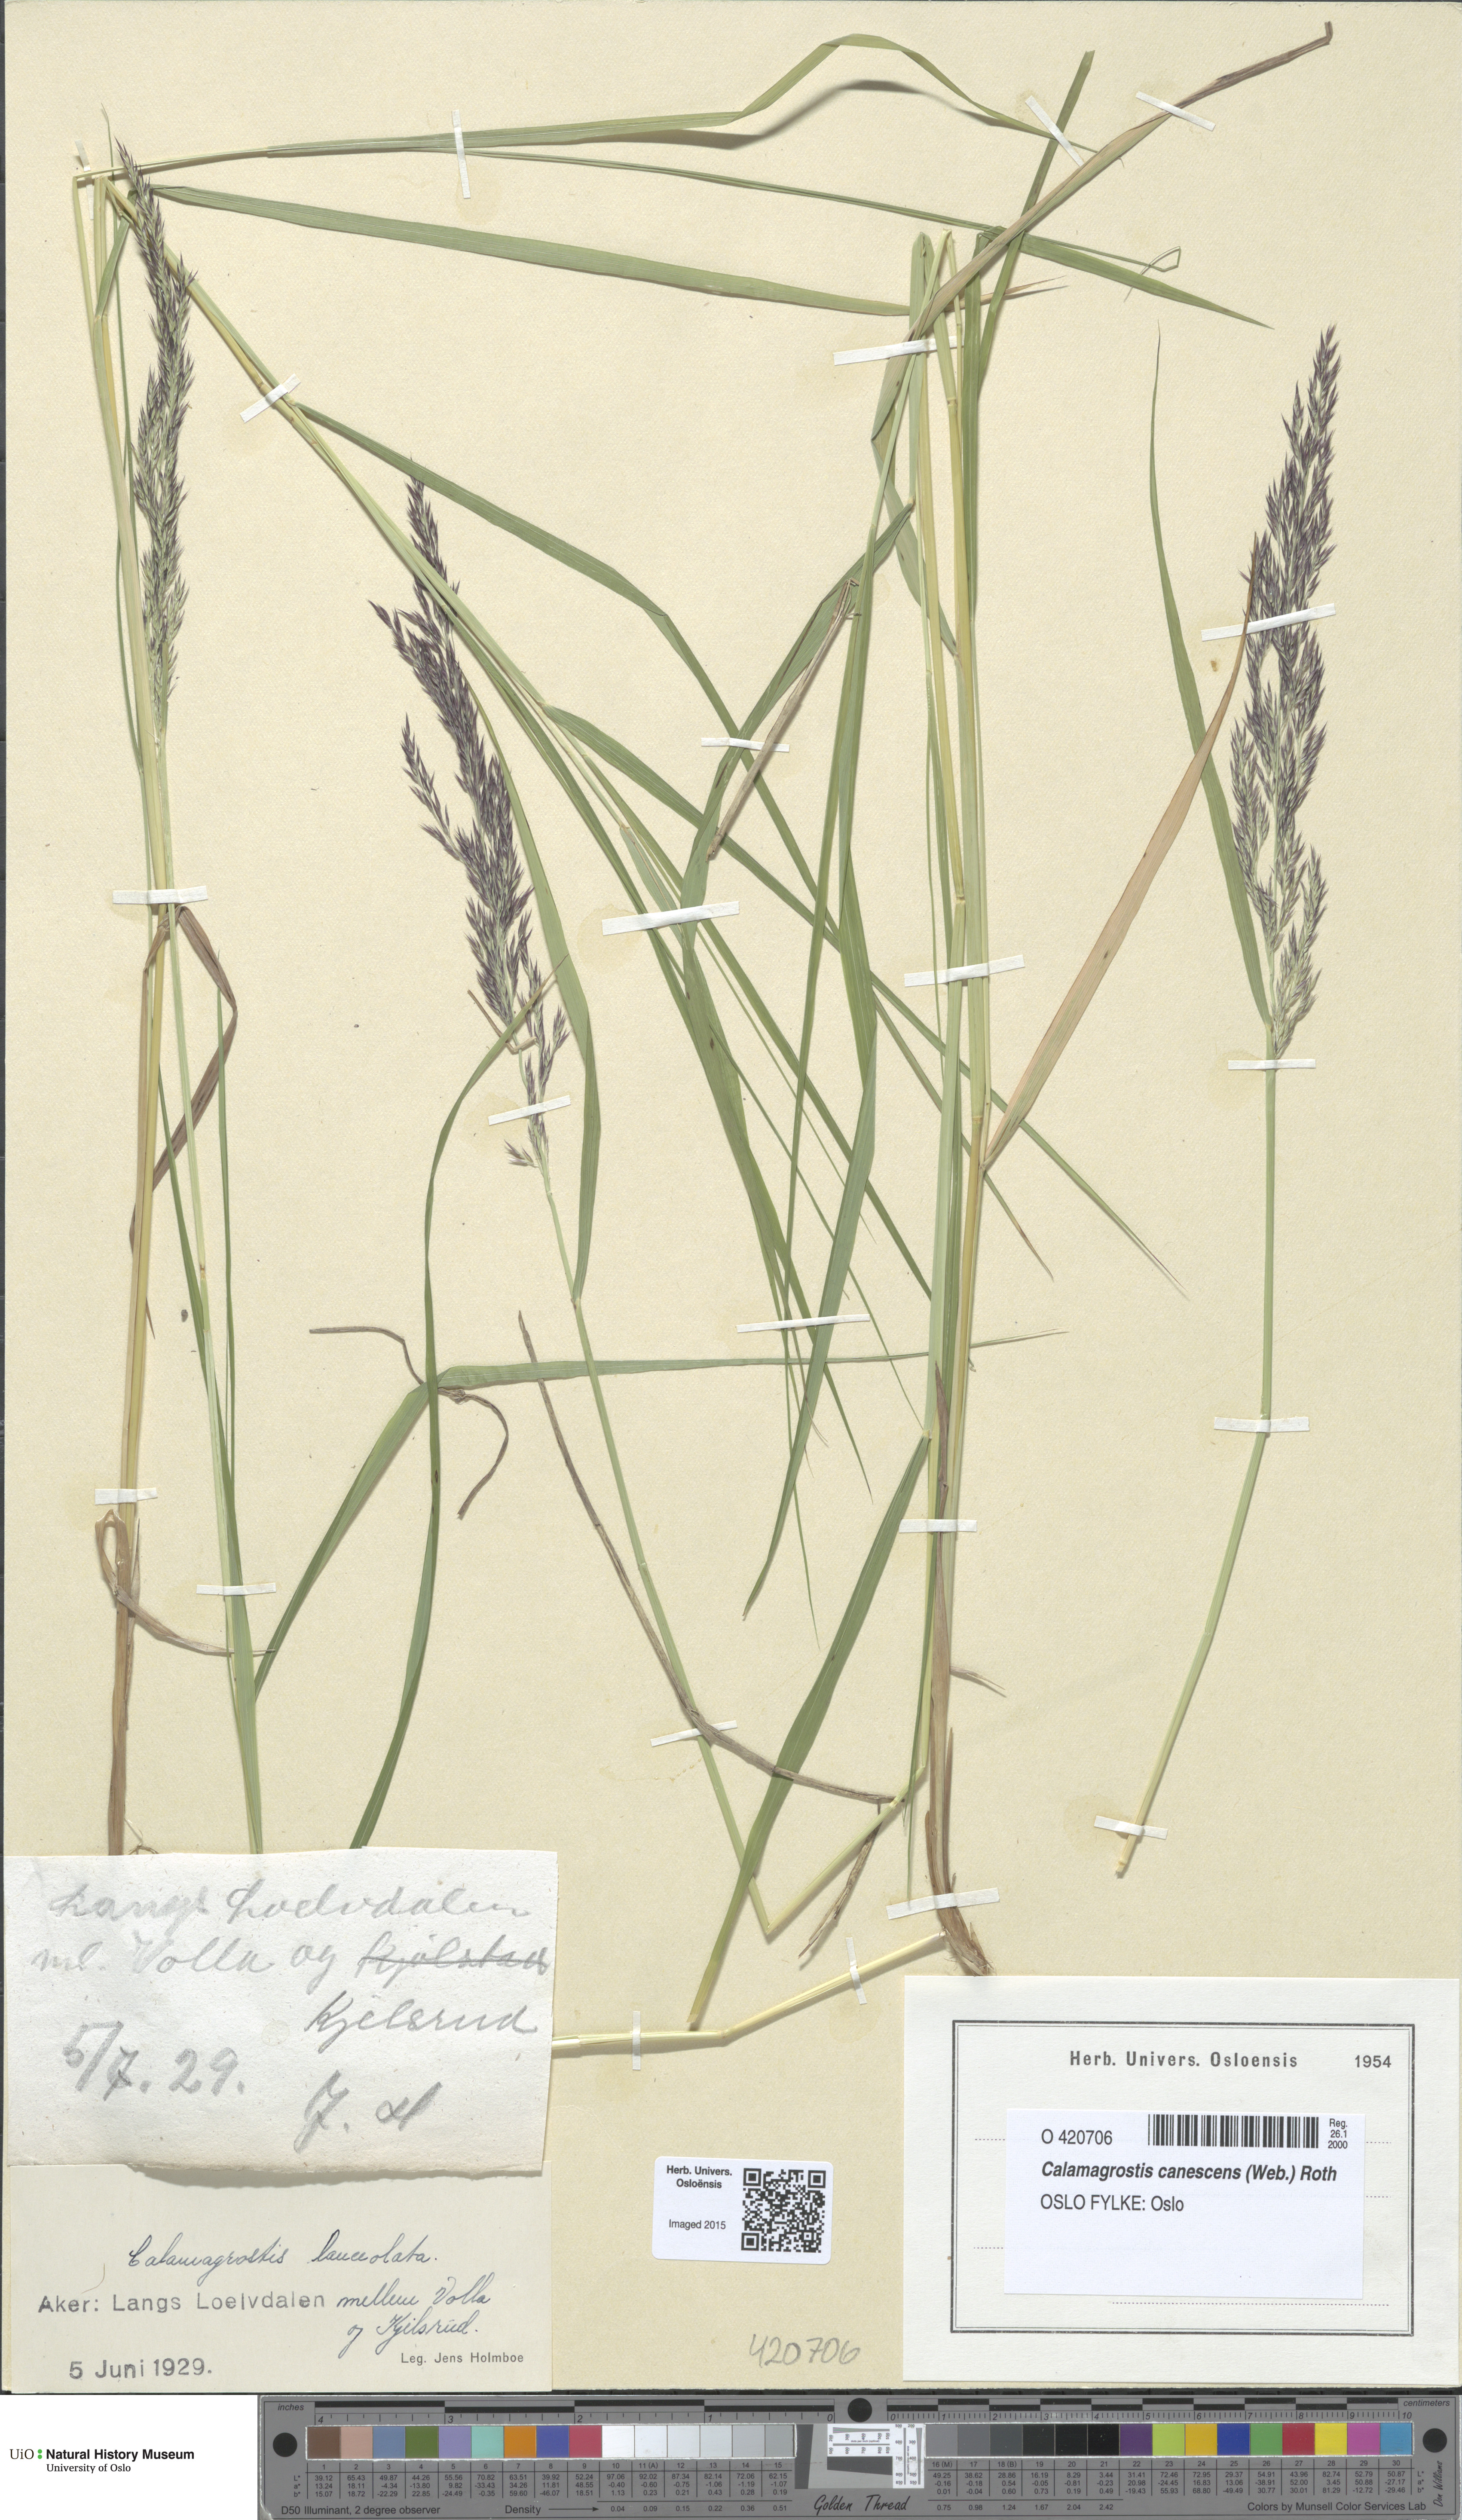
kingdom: Plantae
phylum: Tracheophyta
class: Liliopsida
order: Poales
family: Poaceae
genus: Calamagrostis
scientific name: Calamagrostis canescens
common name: Purple small-reed
